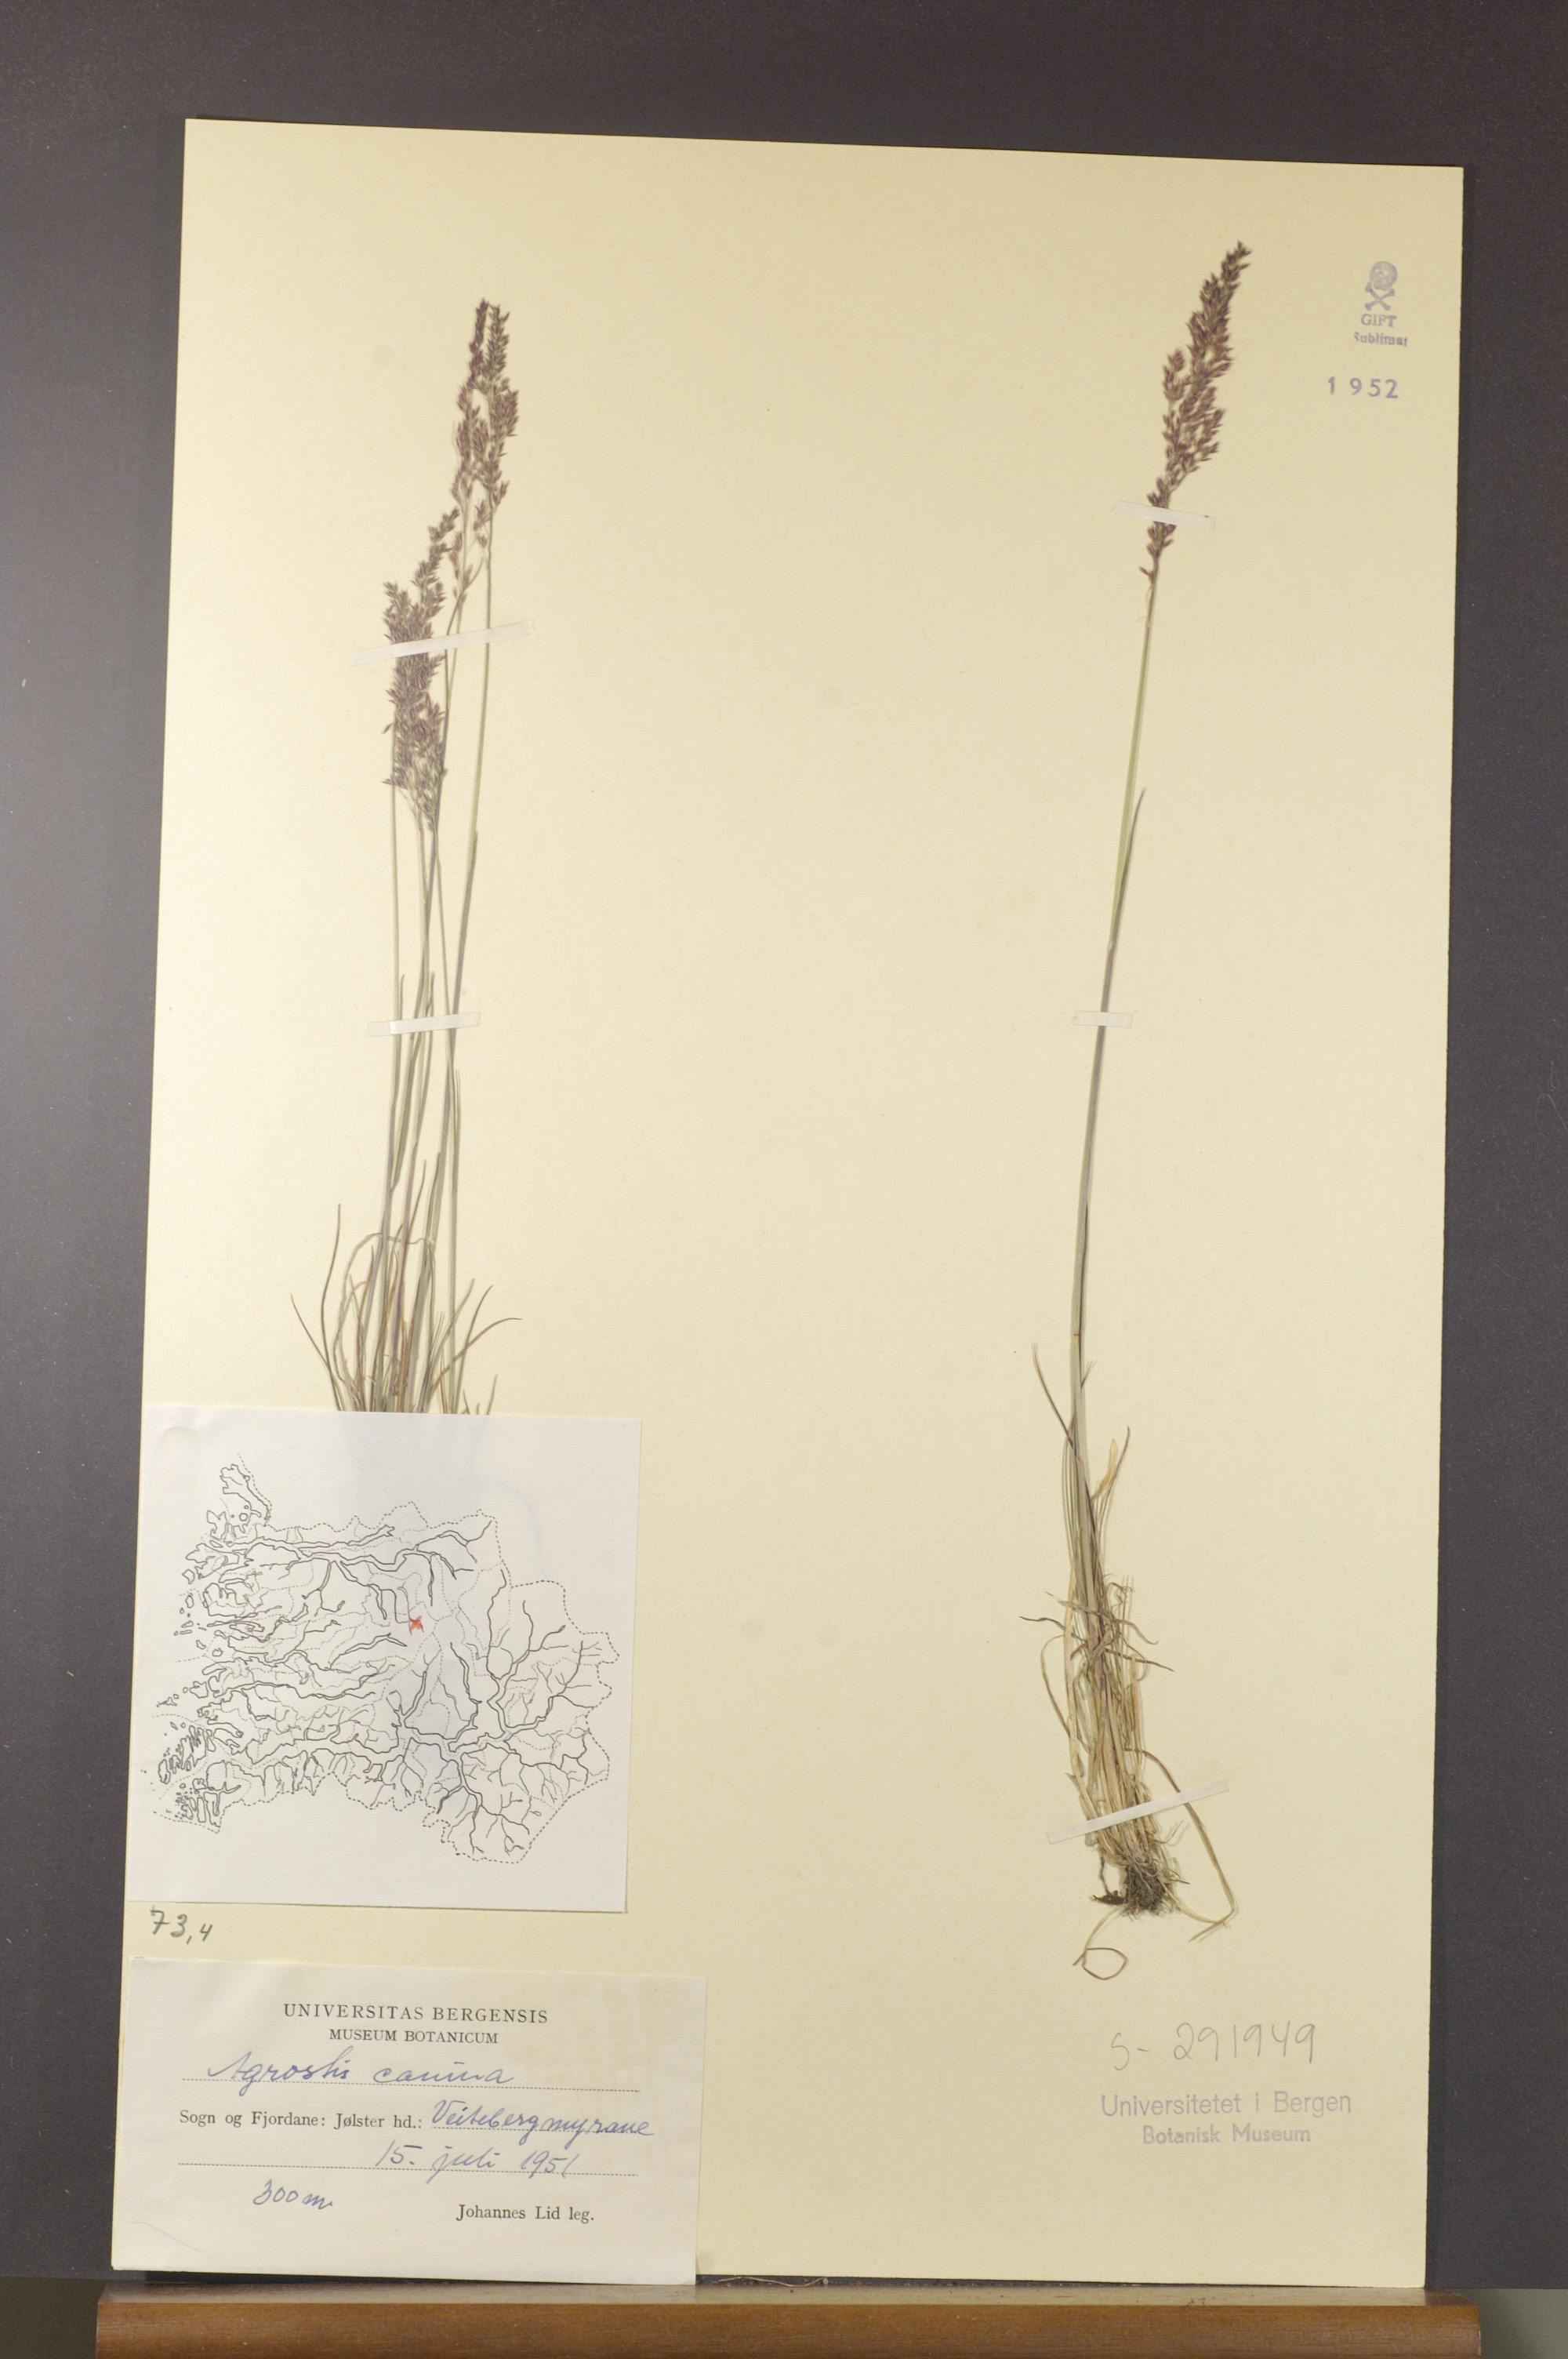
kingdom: Plantae
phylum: Tracheophyta
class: Liliopsida
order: Poales
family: Poaceae
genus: Agrostis
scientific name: Agrostis canina
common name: Velvet bent
